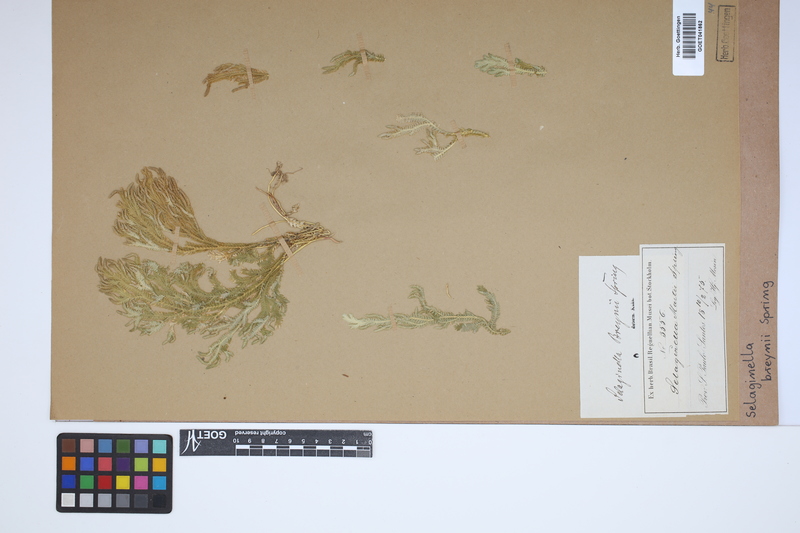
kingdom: Plantae
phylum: Tracheophyta
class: Lycopodiopsida
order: Selaginellales
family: Selaginellaceae
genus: Selaginella
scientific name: Selaginella breynii
